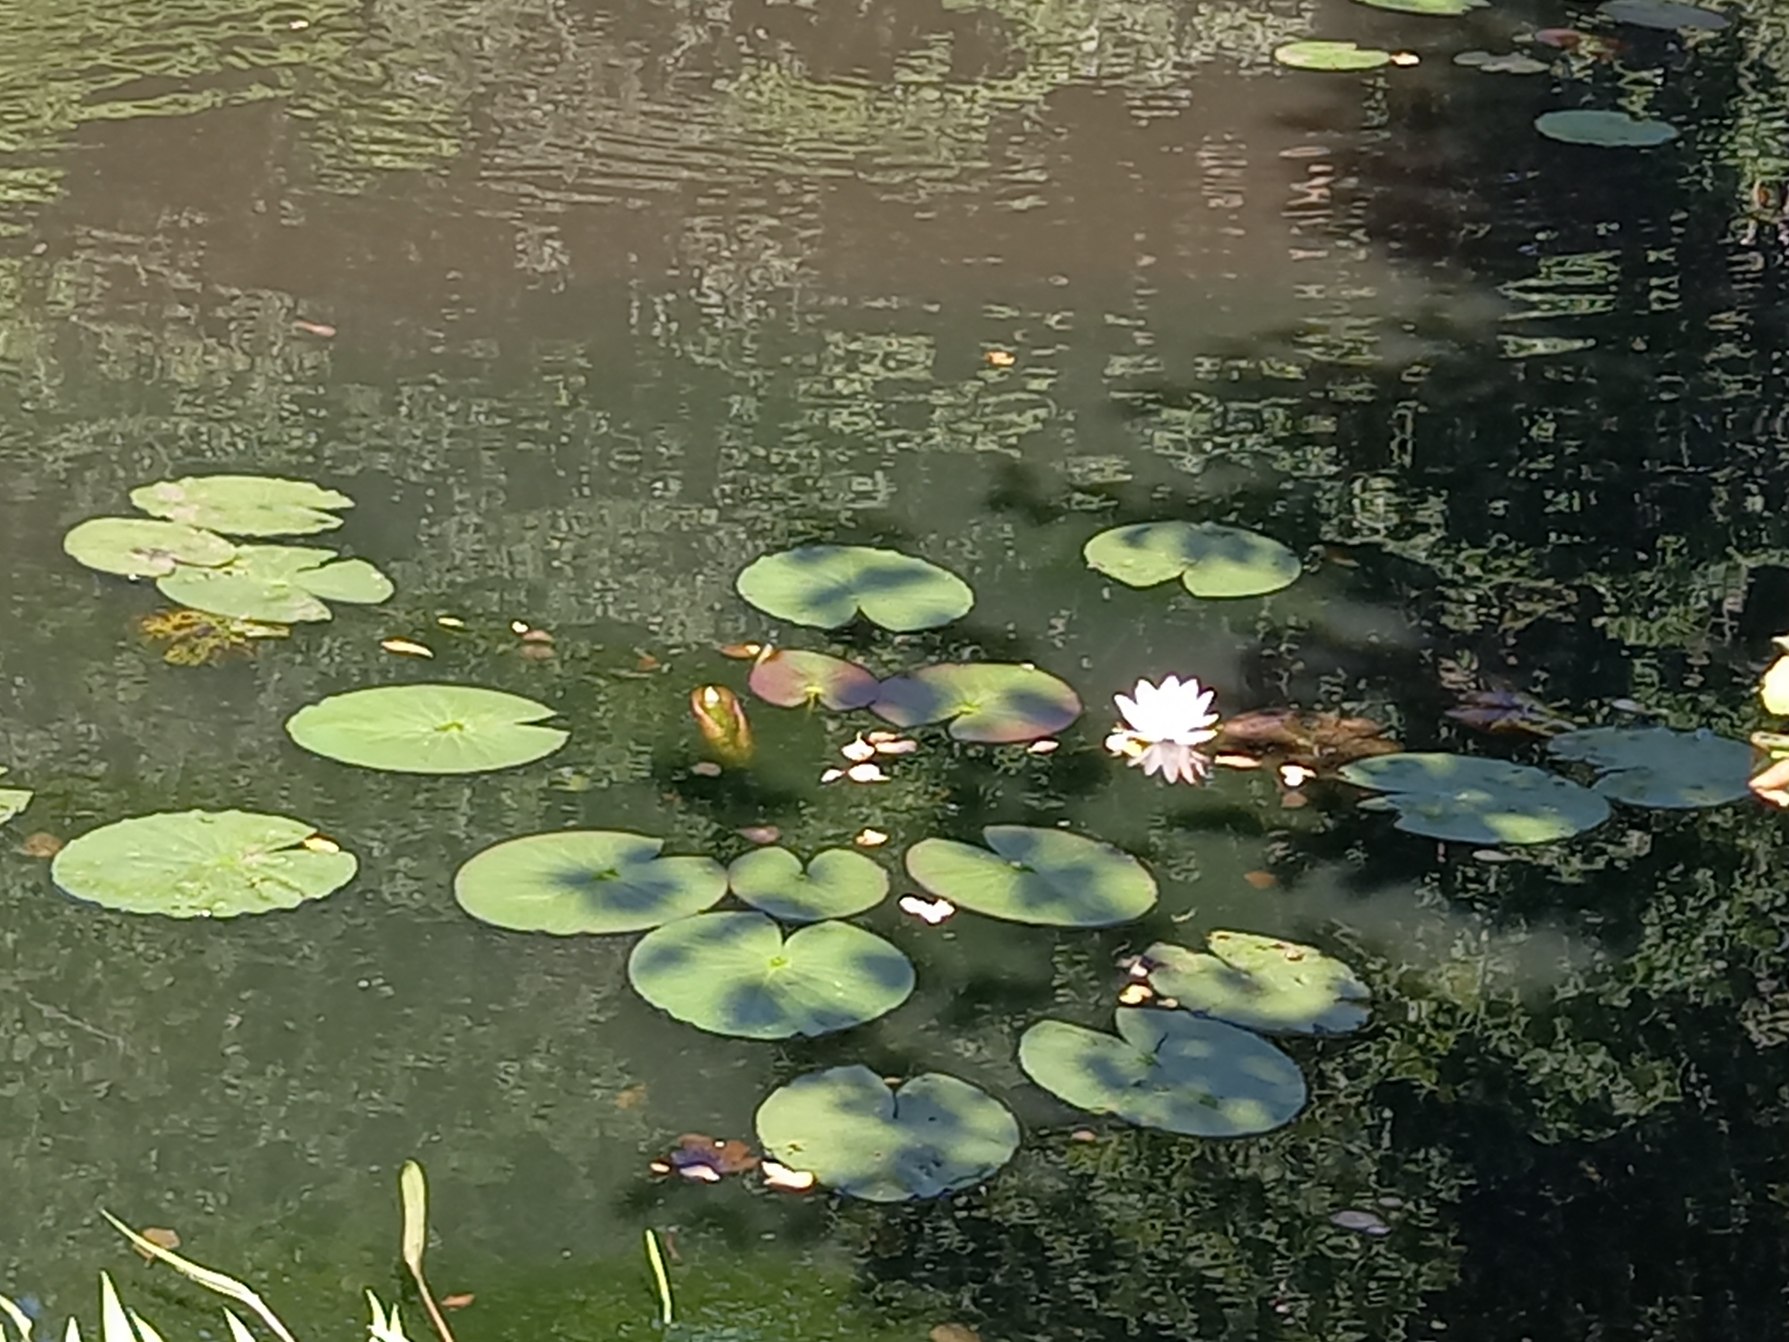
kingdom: Plantae
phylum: Tracheophyta
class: Magnoliopsida
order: Nymphaeales
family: Nymphaeaceae
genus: Nymphaea
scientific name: Nymphaea alba
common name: Hvid åkande
